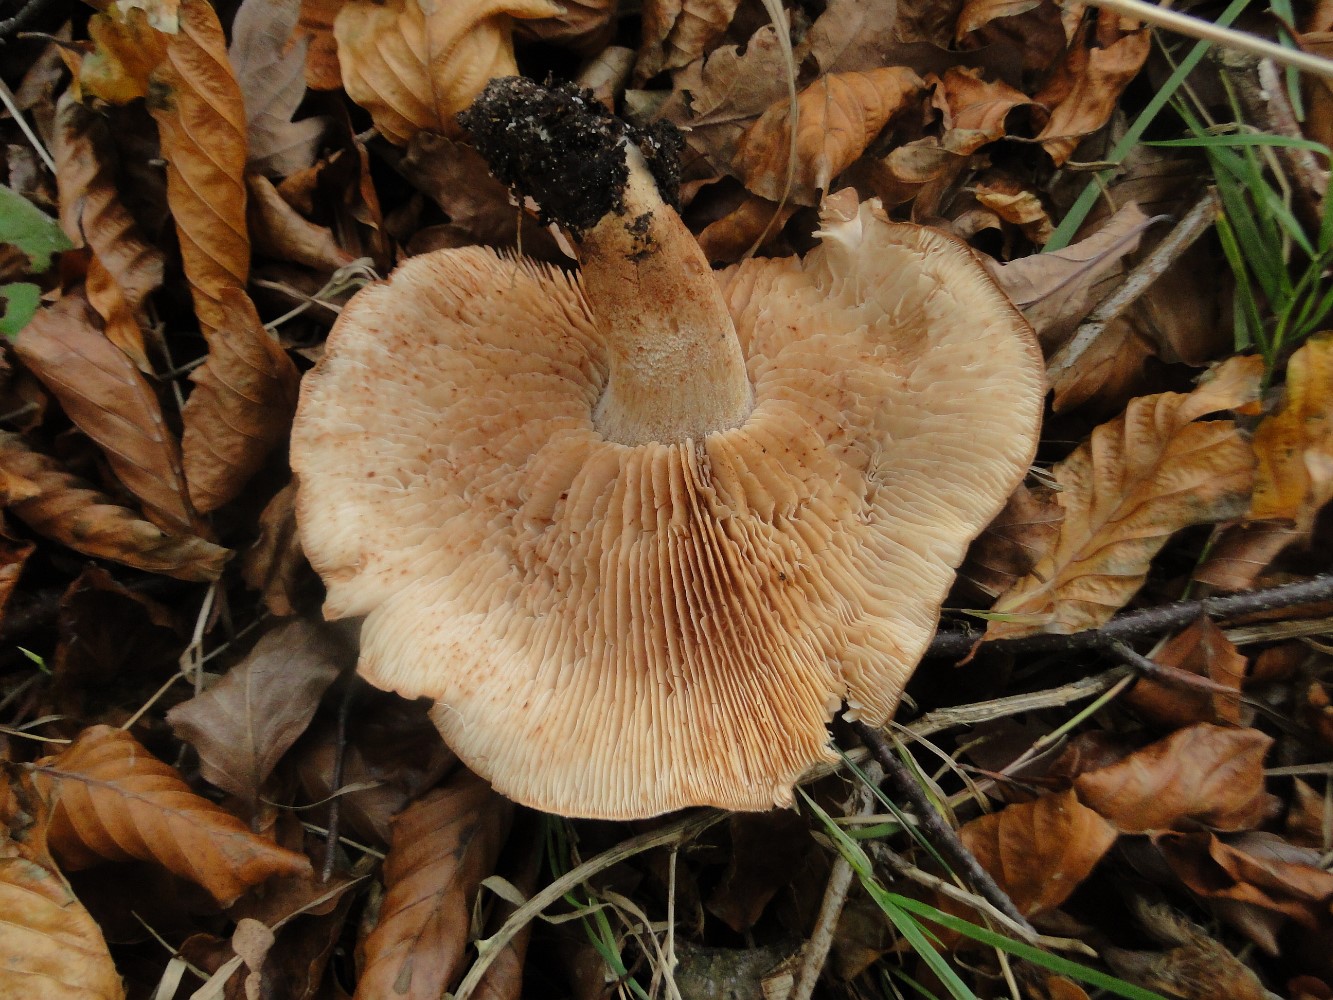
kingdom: Fungi
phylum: Basidiomycota
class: Agaricomycetes
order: Agaricales
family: Tricholomataceae
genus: Tricholoma
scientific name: Tricholoma
